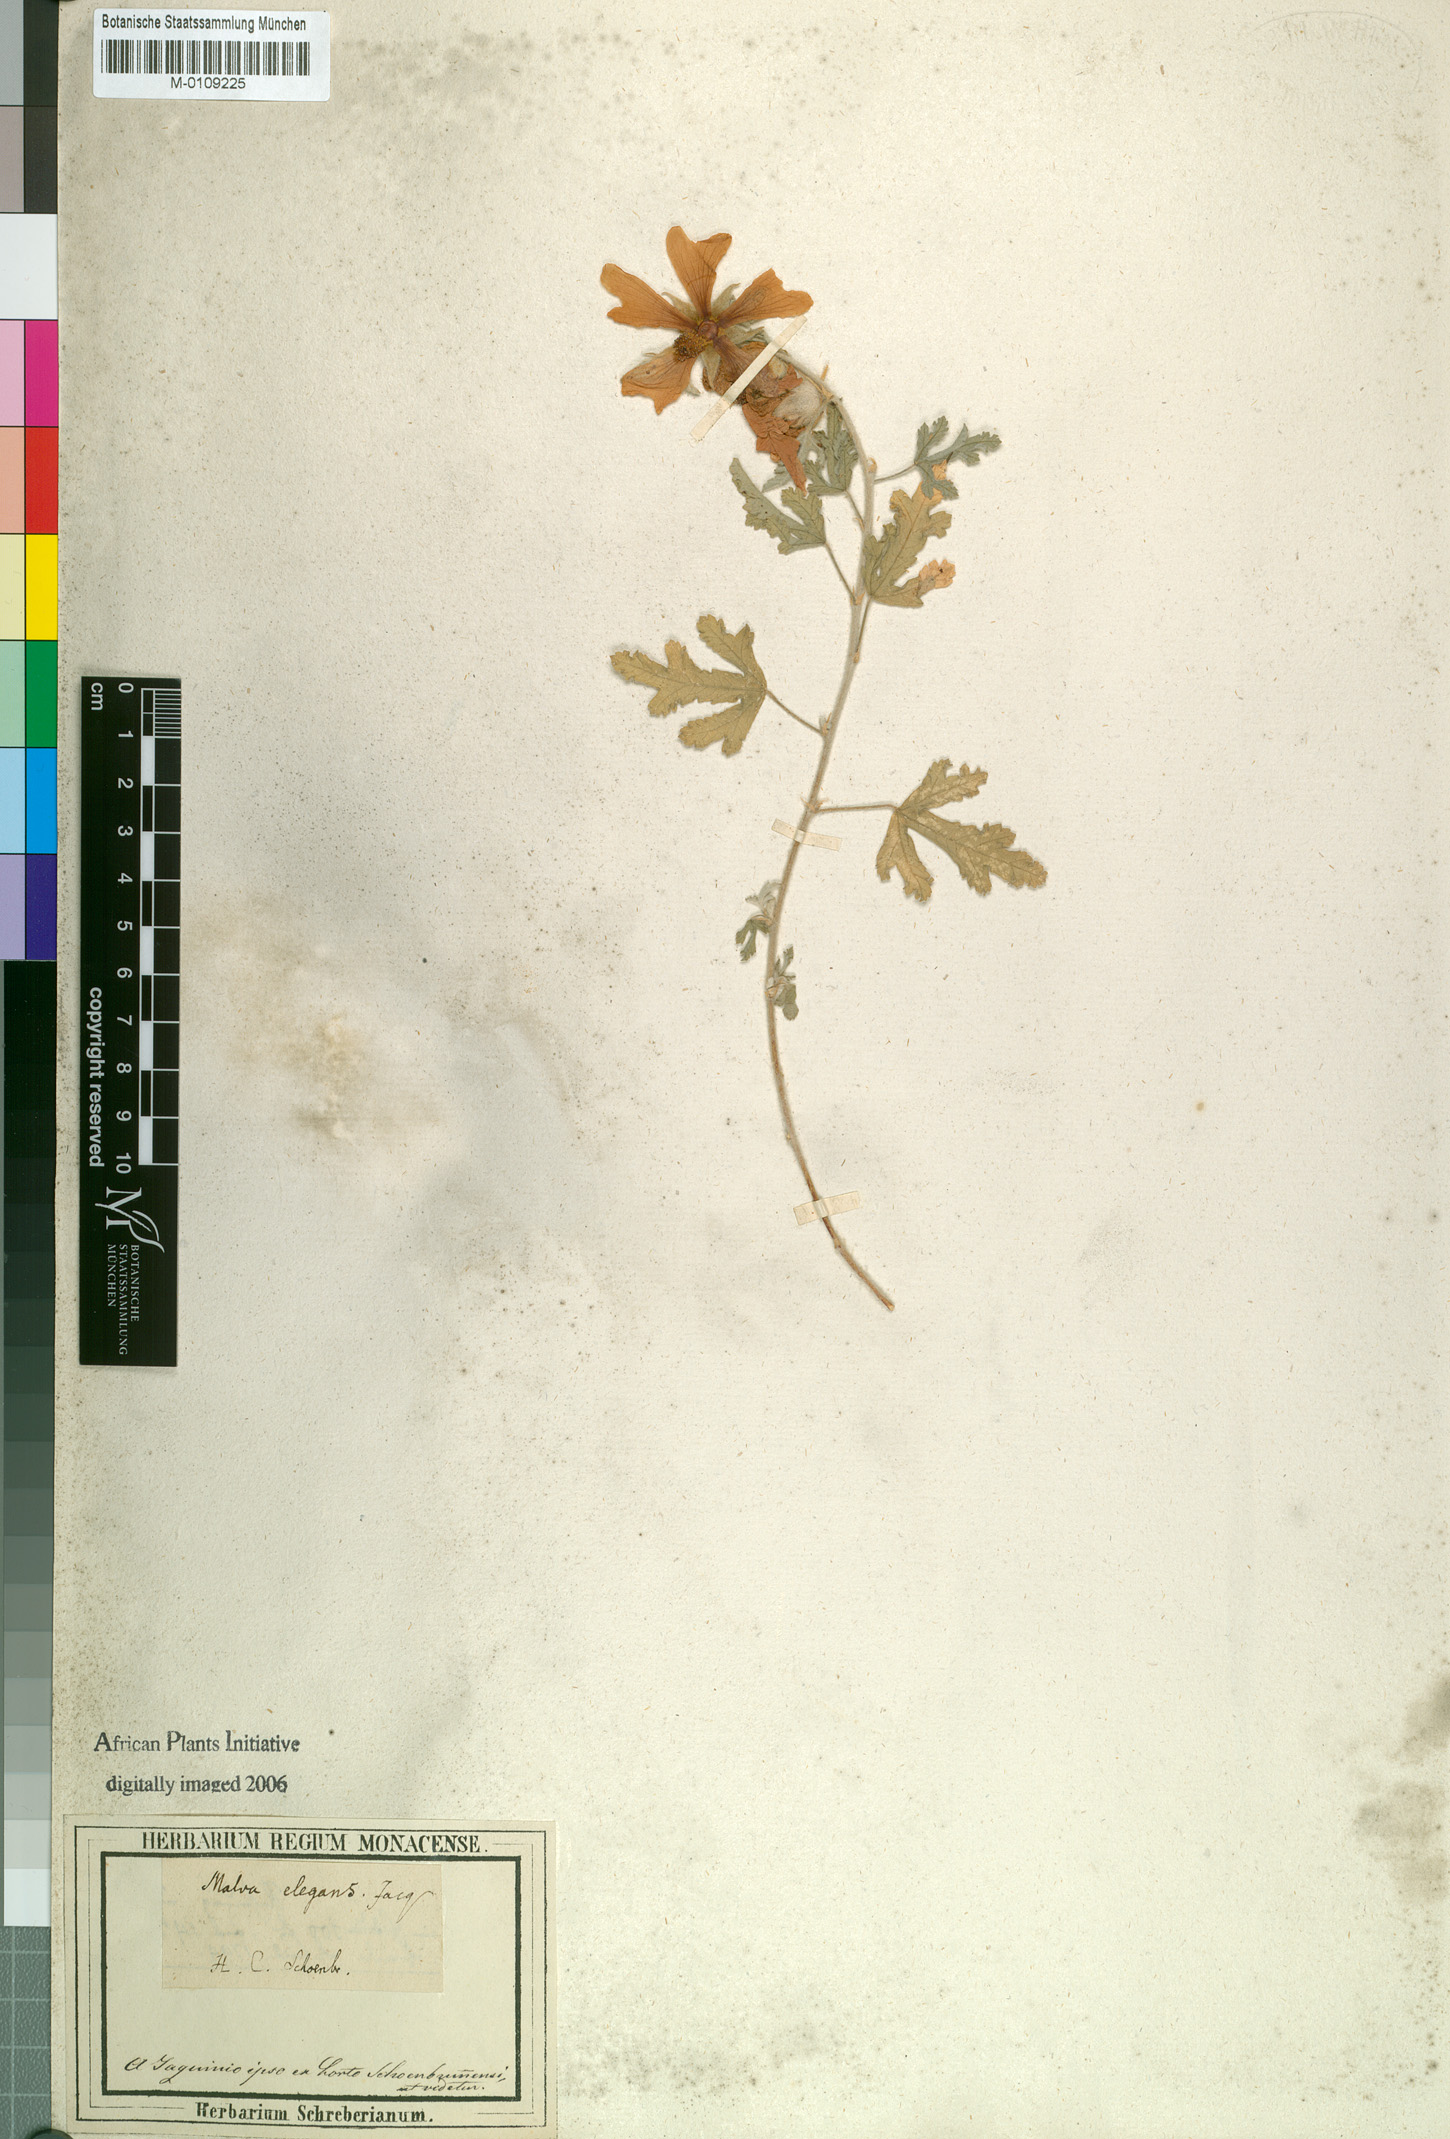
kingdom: Plantae
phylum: Tracheophyta
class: Magnoliopsida
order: Malvales
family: Malvaceae
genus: Anisodontea
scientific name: Anisodontea elegans
